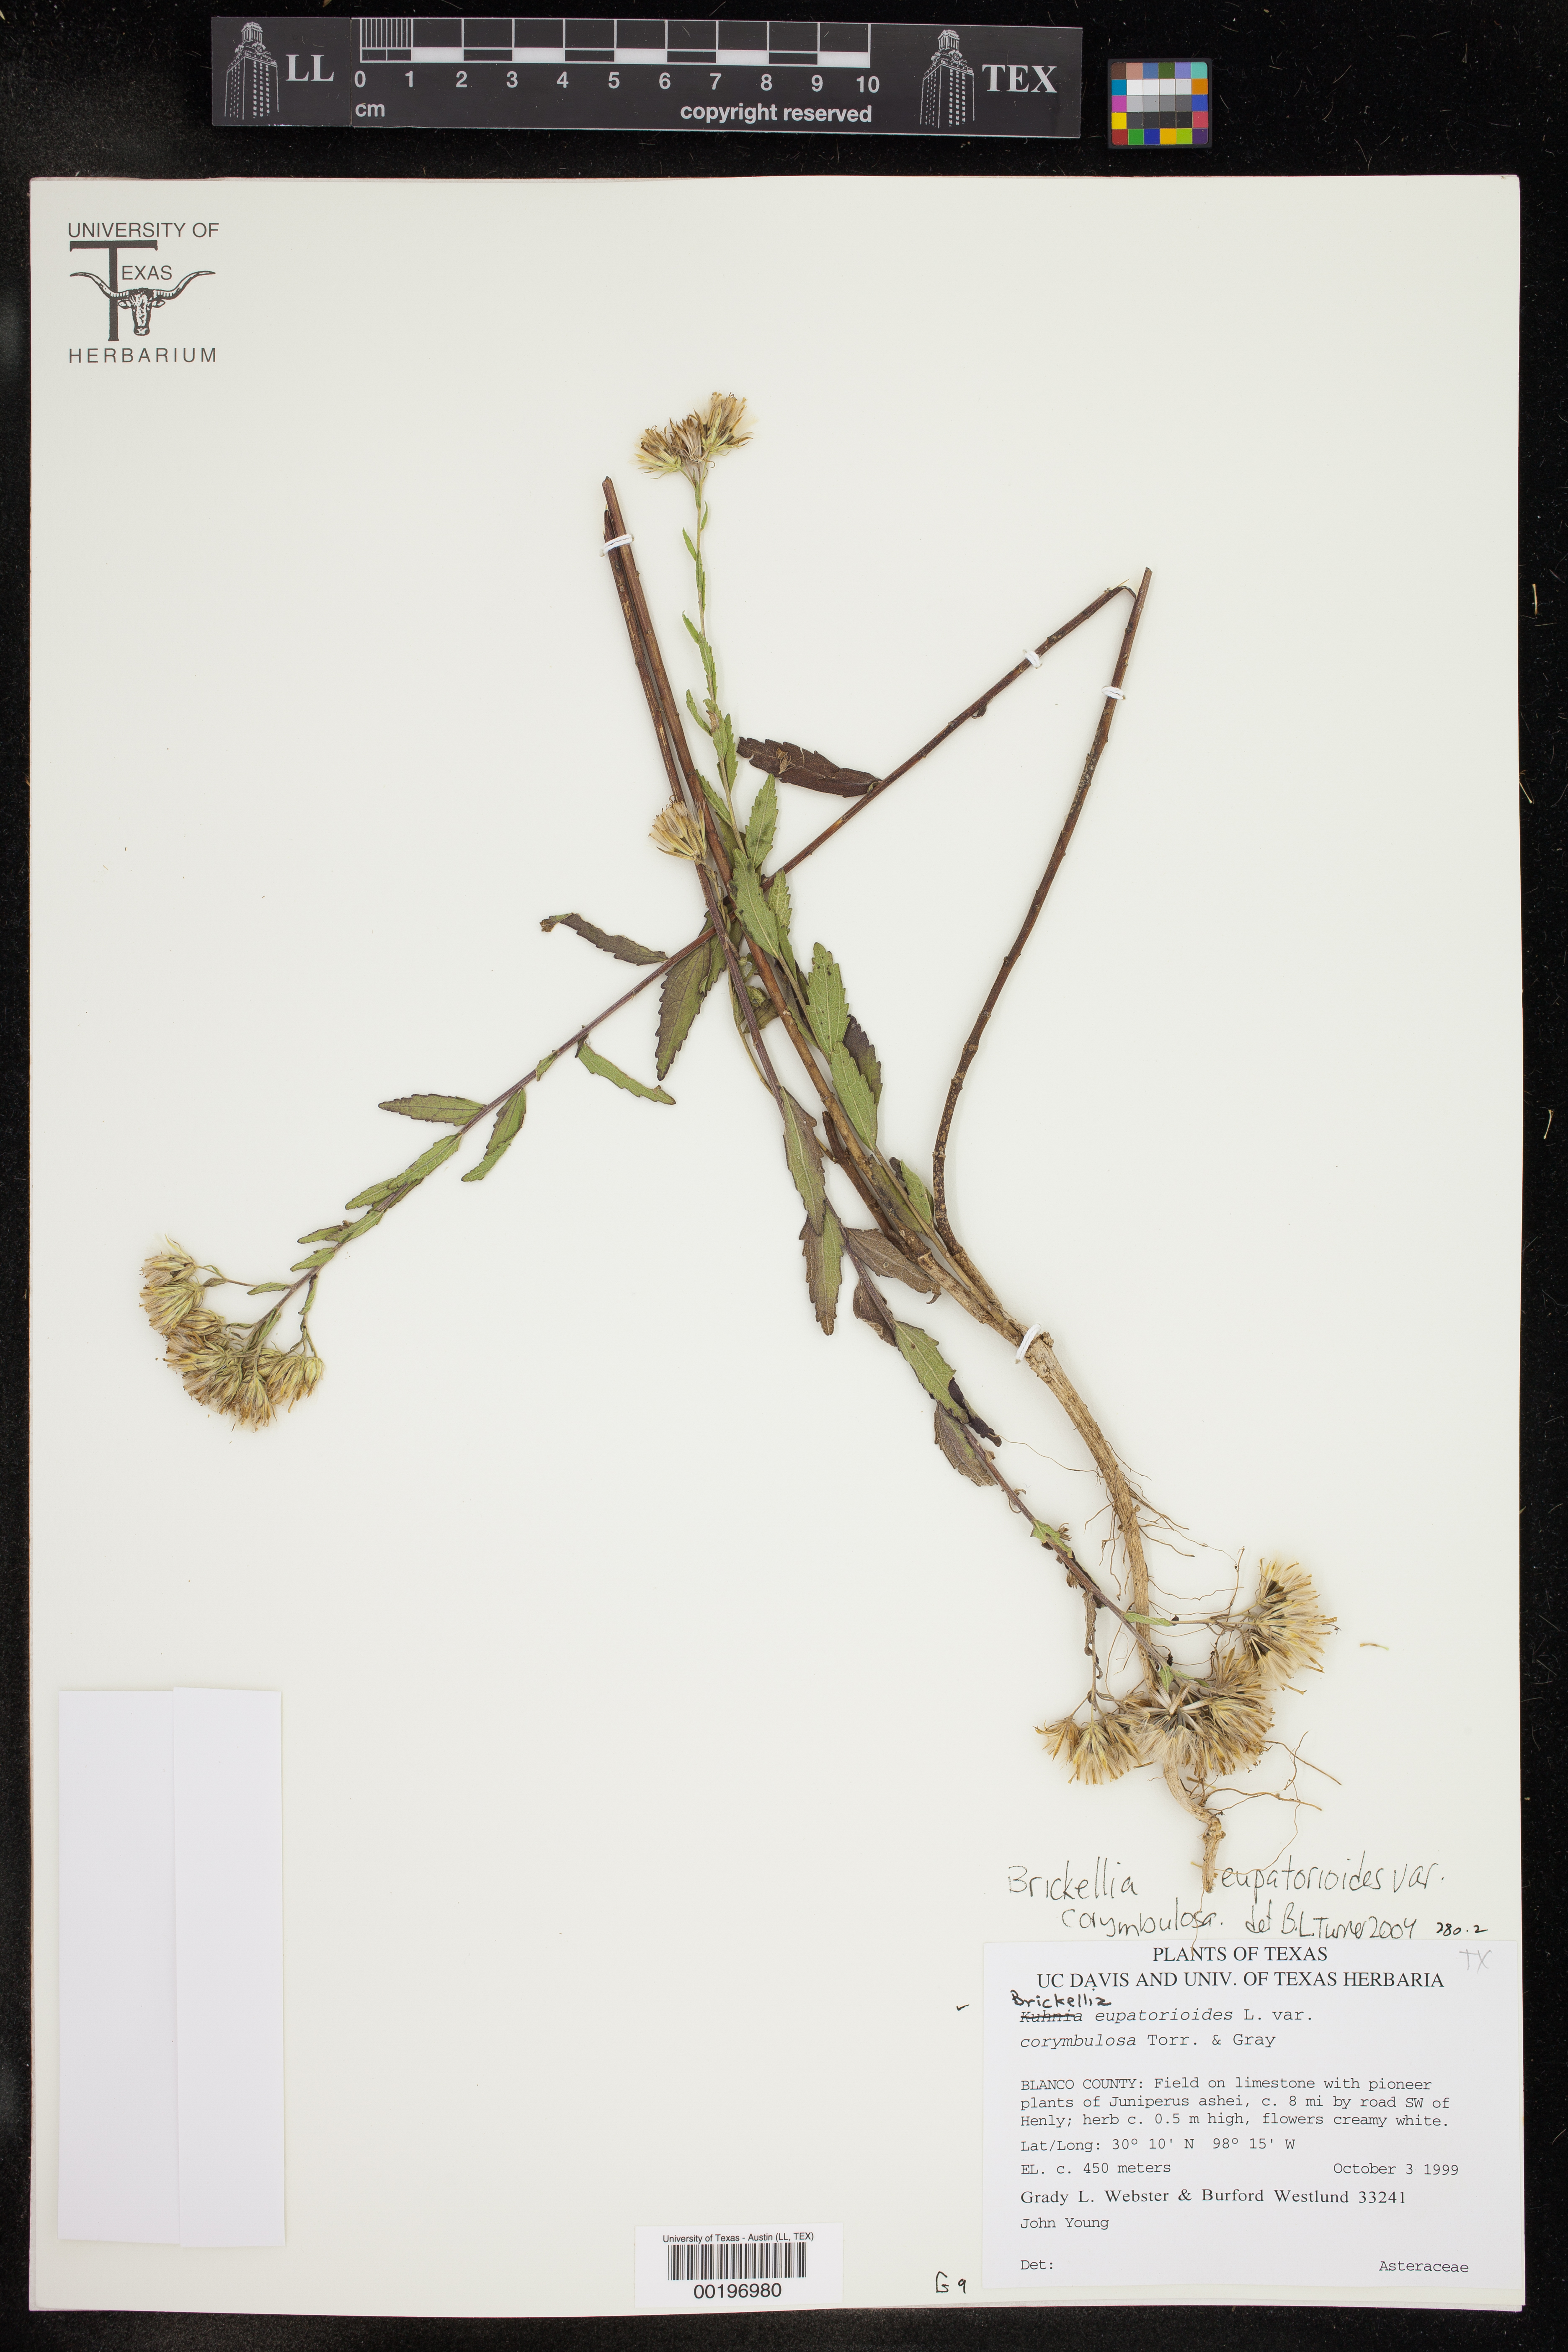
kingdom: Plantae
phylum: Tracheophyta
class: Magnoliopsida
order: Asterales
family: Asteraceae
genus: Brickellia
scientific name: Brickellia suaveolens
